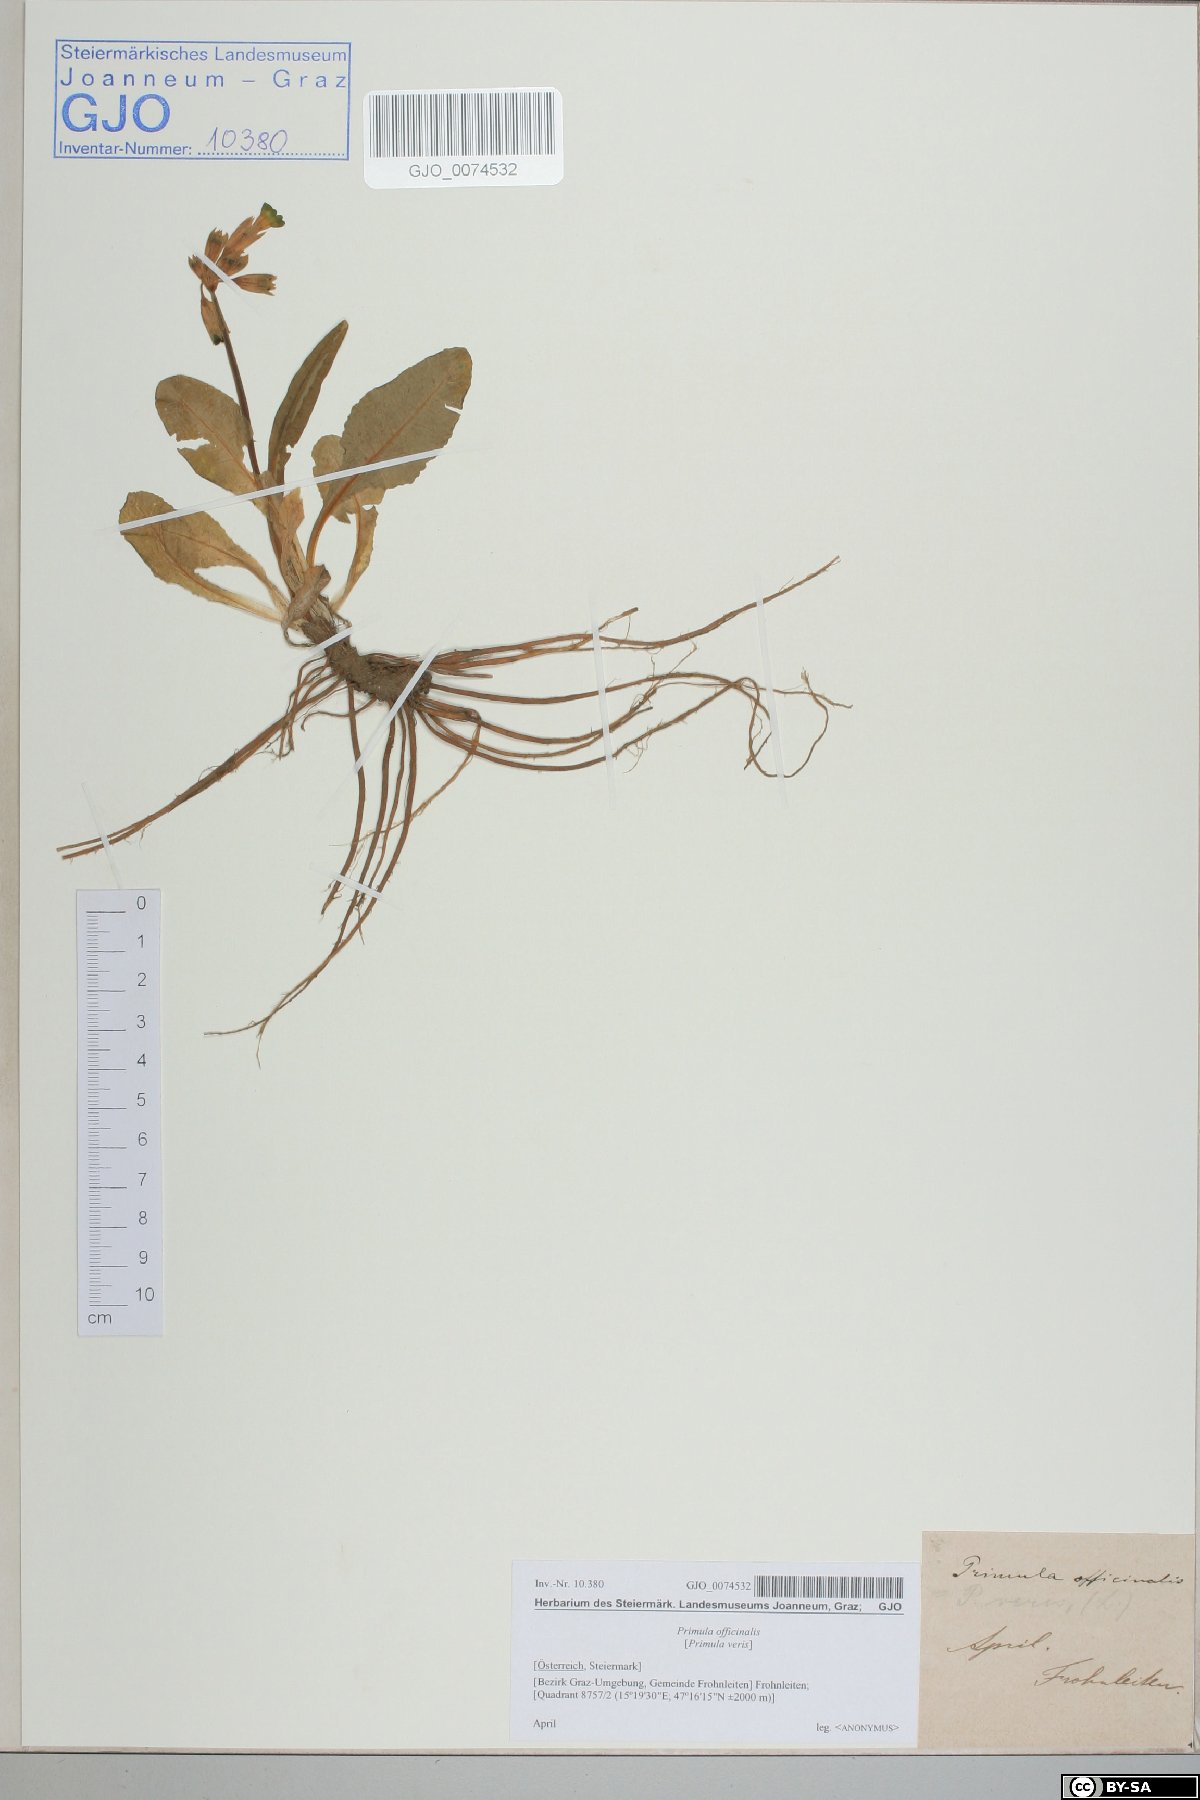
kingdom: Plantae
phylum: Tracheophyta
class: Magnoliopsida
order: Ericales
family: Primulaceae
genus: Primula
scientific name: Primula veris
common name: Cowslip
